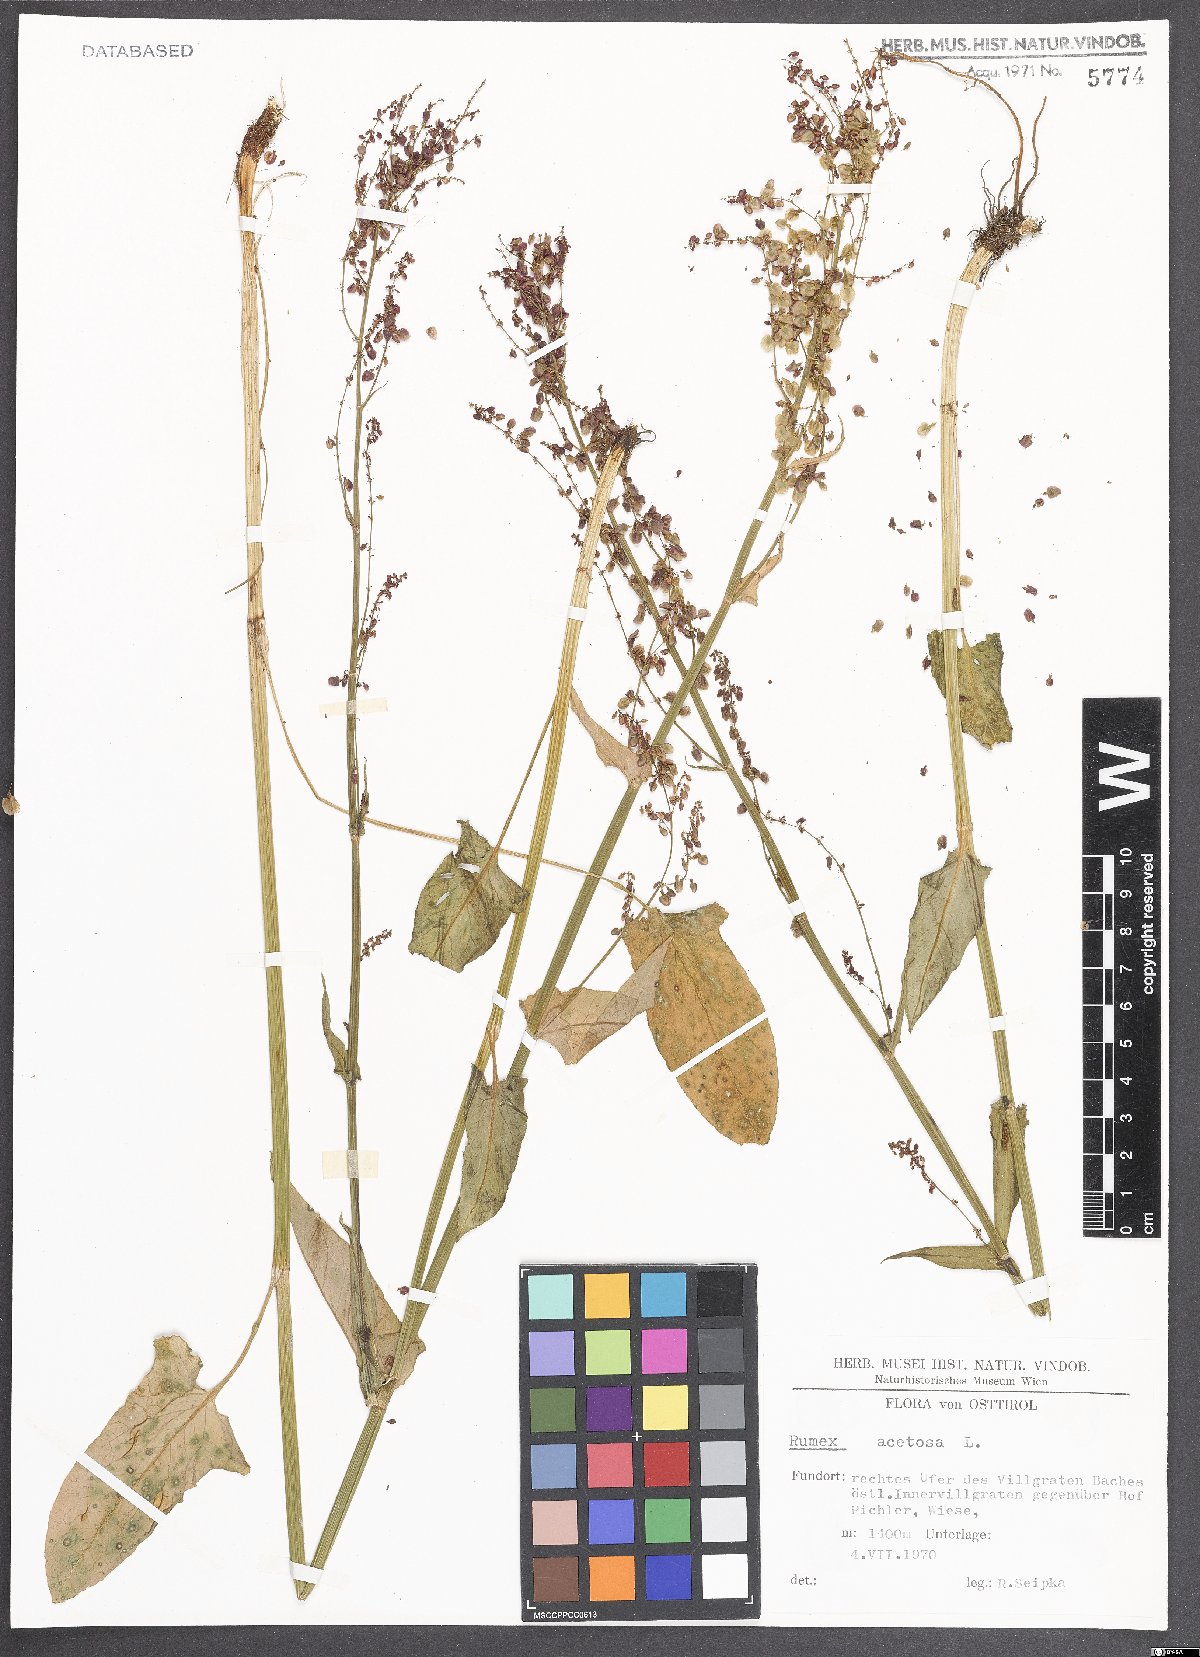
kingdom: Plantae
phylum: Tracheophyta
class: Magnoliopsida
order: Caryophyllales
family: Polygonaceae
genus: Rumex
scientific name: Rumex acetosa
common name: Garden sorrel
